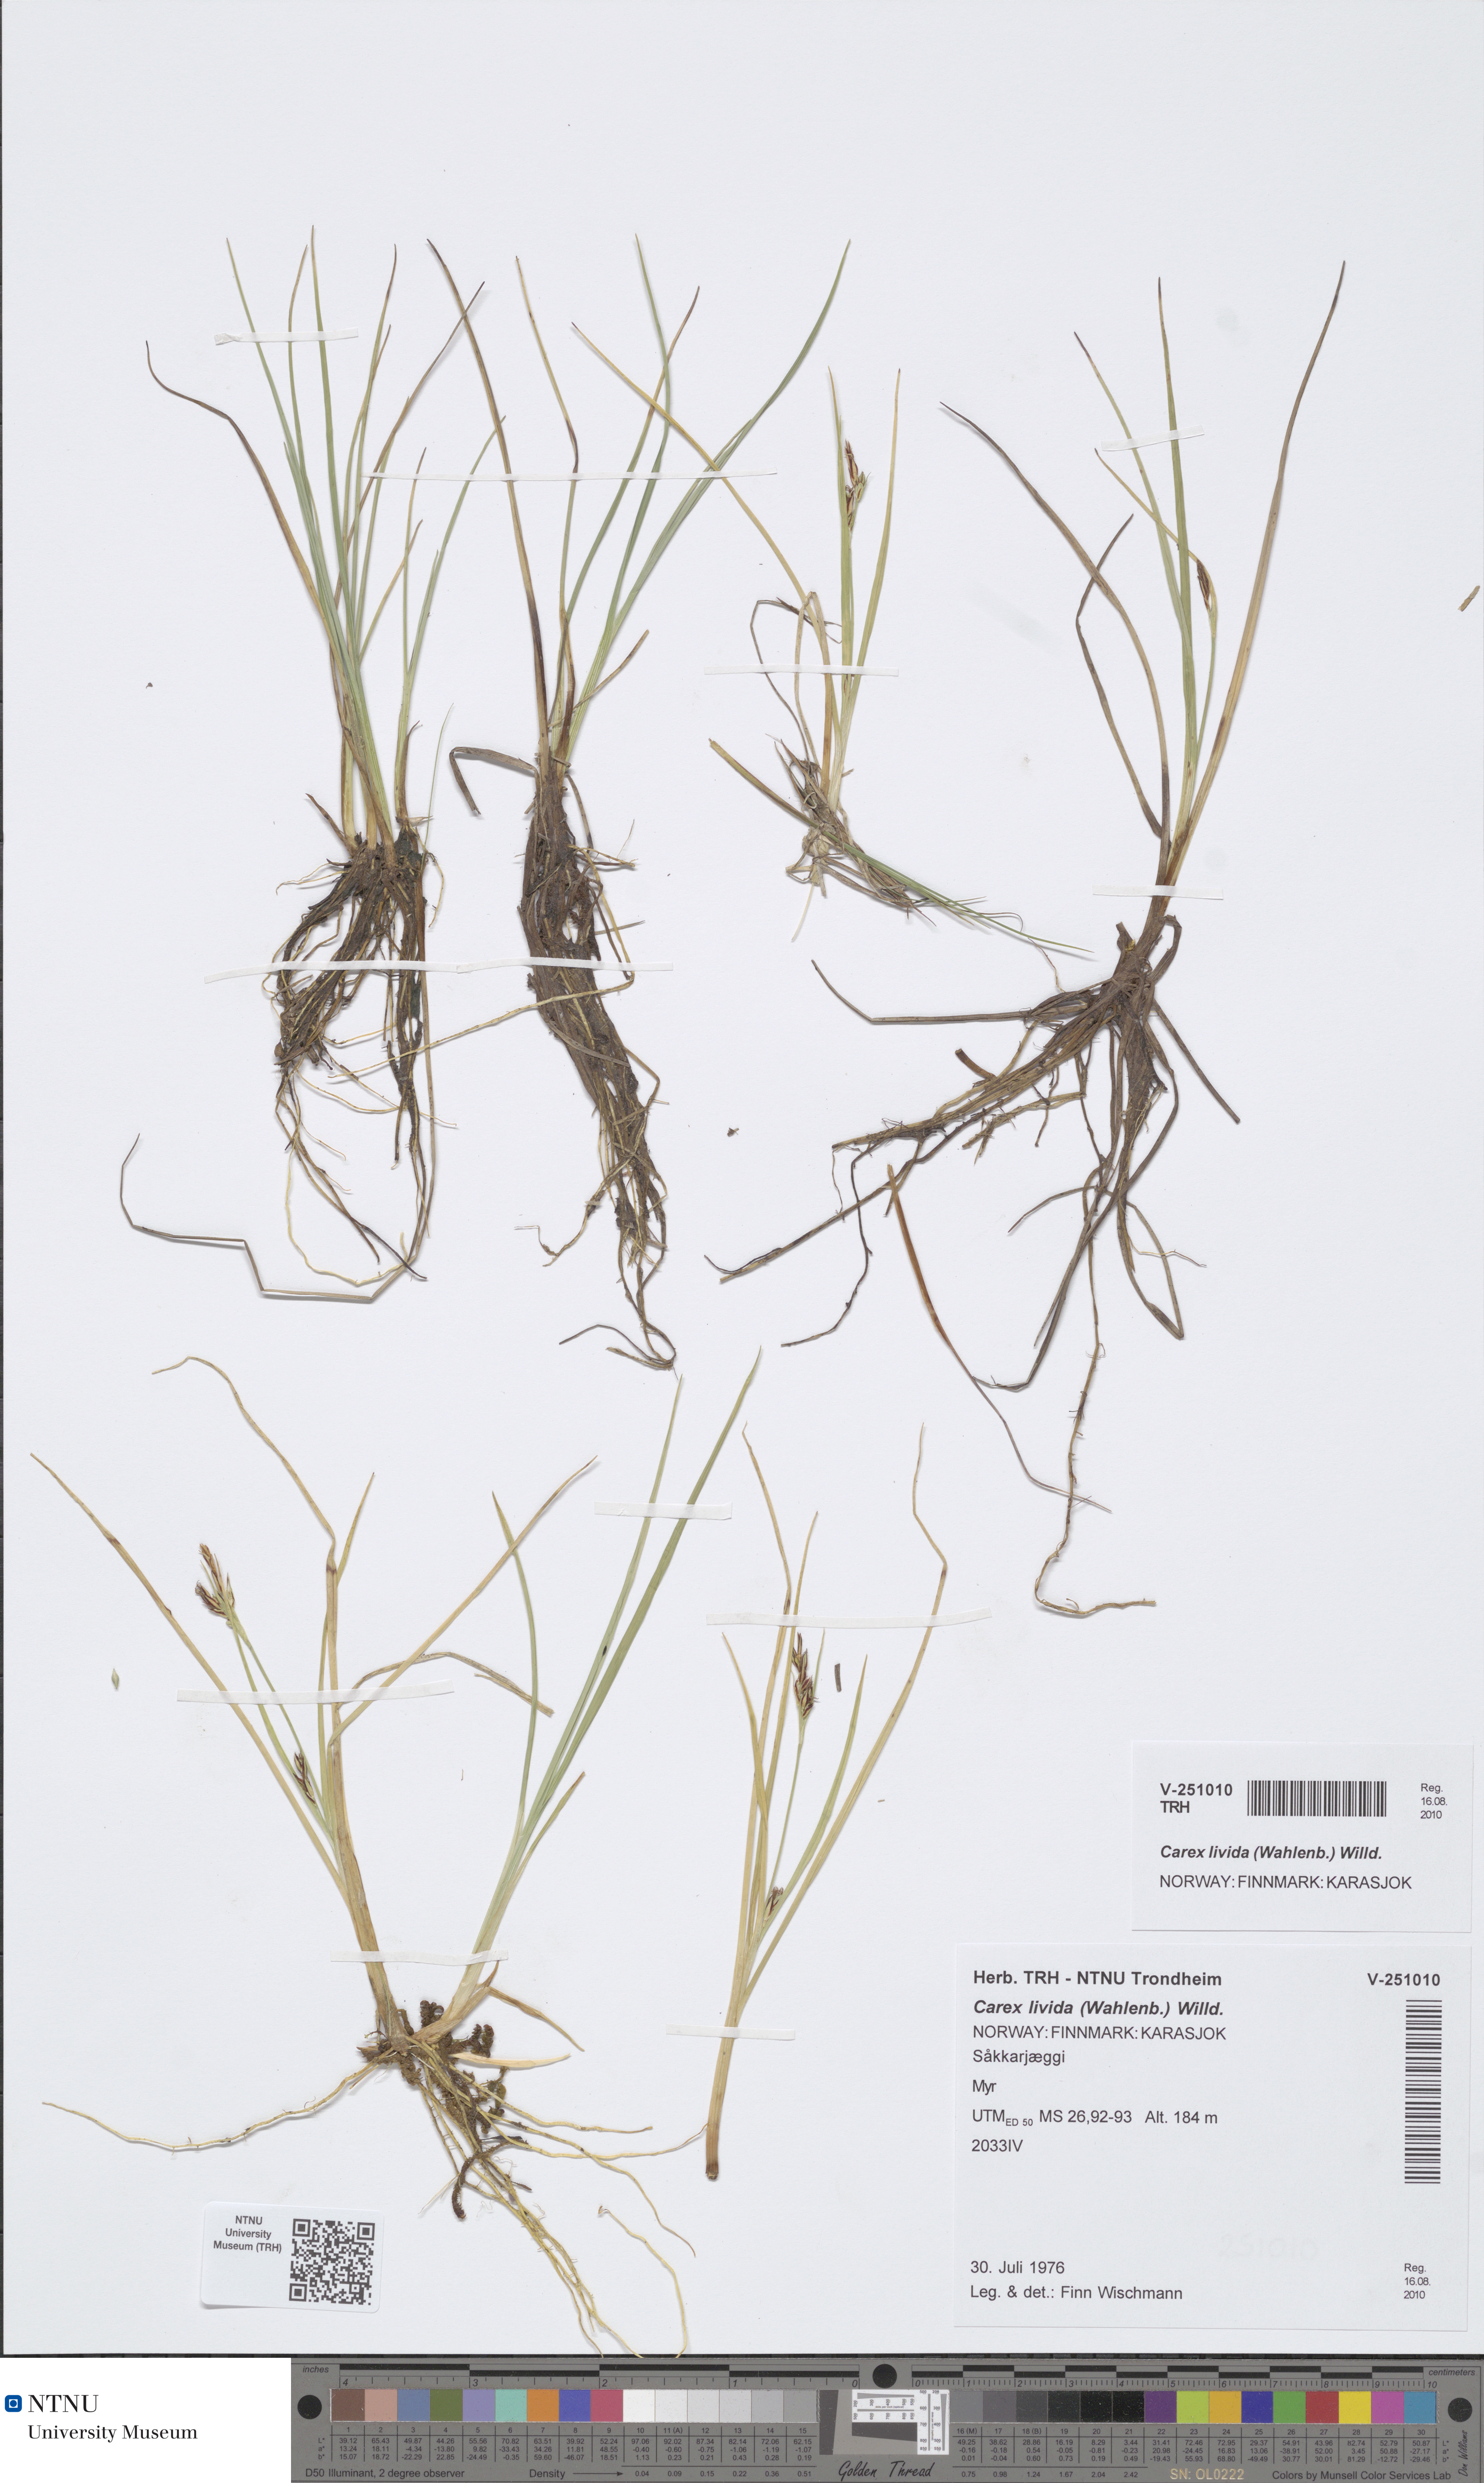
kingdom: Plantae
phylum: Tracheophyta
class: Liliopsida
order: Poales
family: Cyperaceae
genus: Carex
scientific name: Carex livida
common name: Livid sedge
